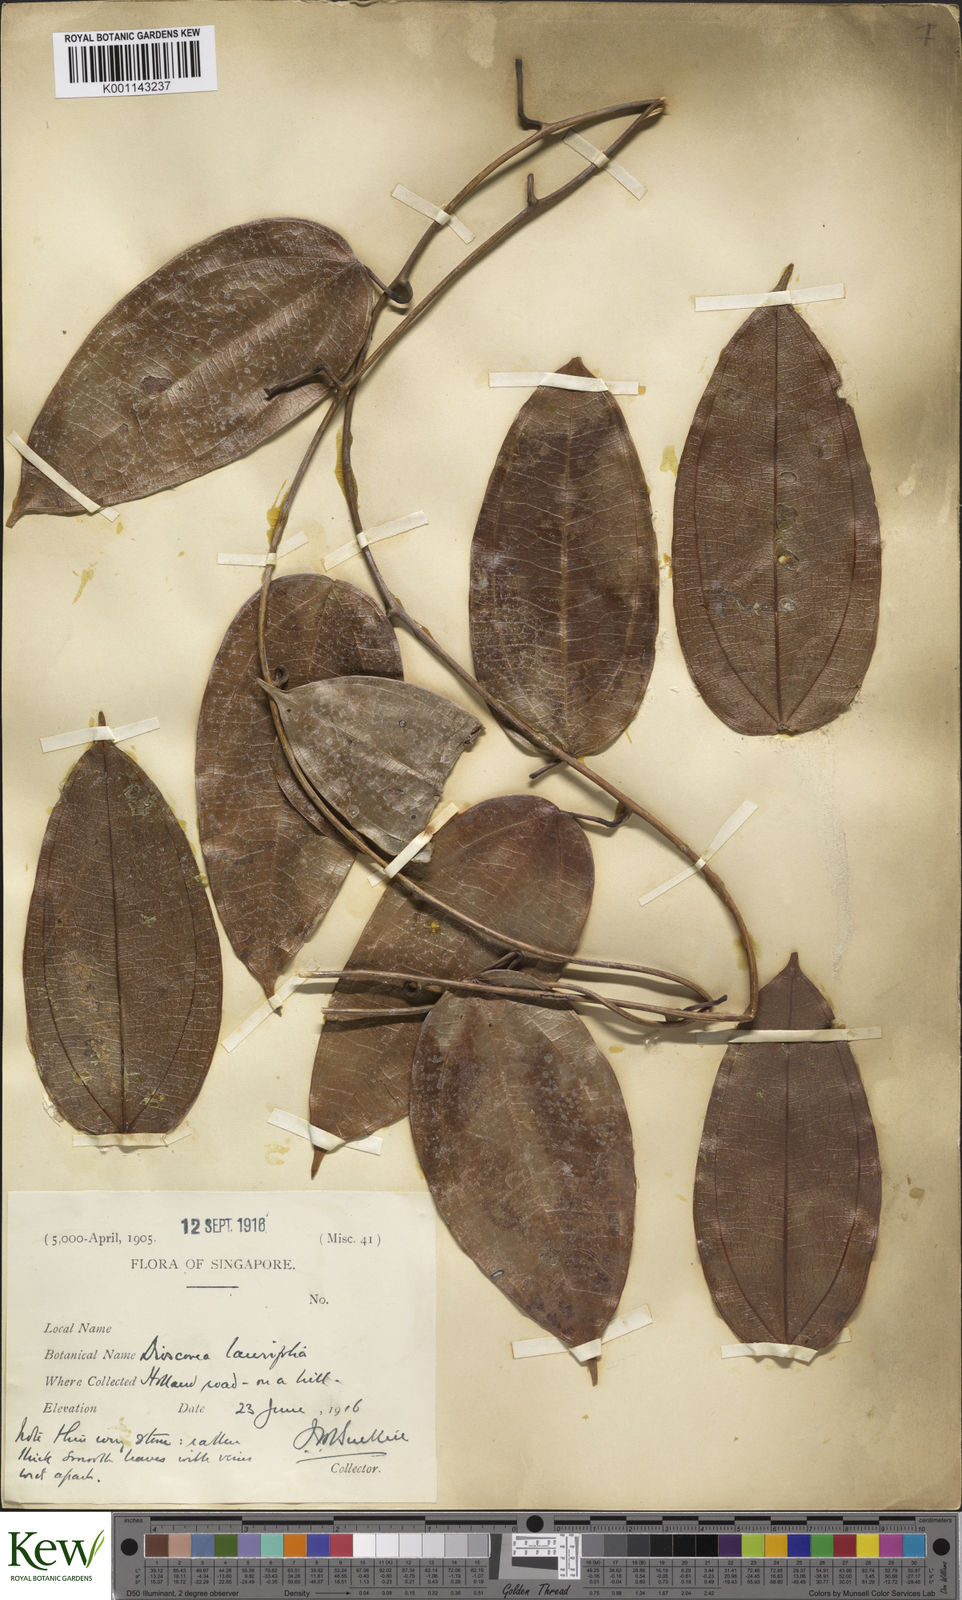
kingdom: Plantae
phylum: Tracheophyta
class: Liliopsida
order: Dioscoreales
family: Dioscoreaceae
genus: Dioscorea
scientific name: Dioscorea laurifolia
